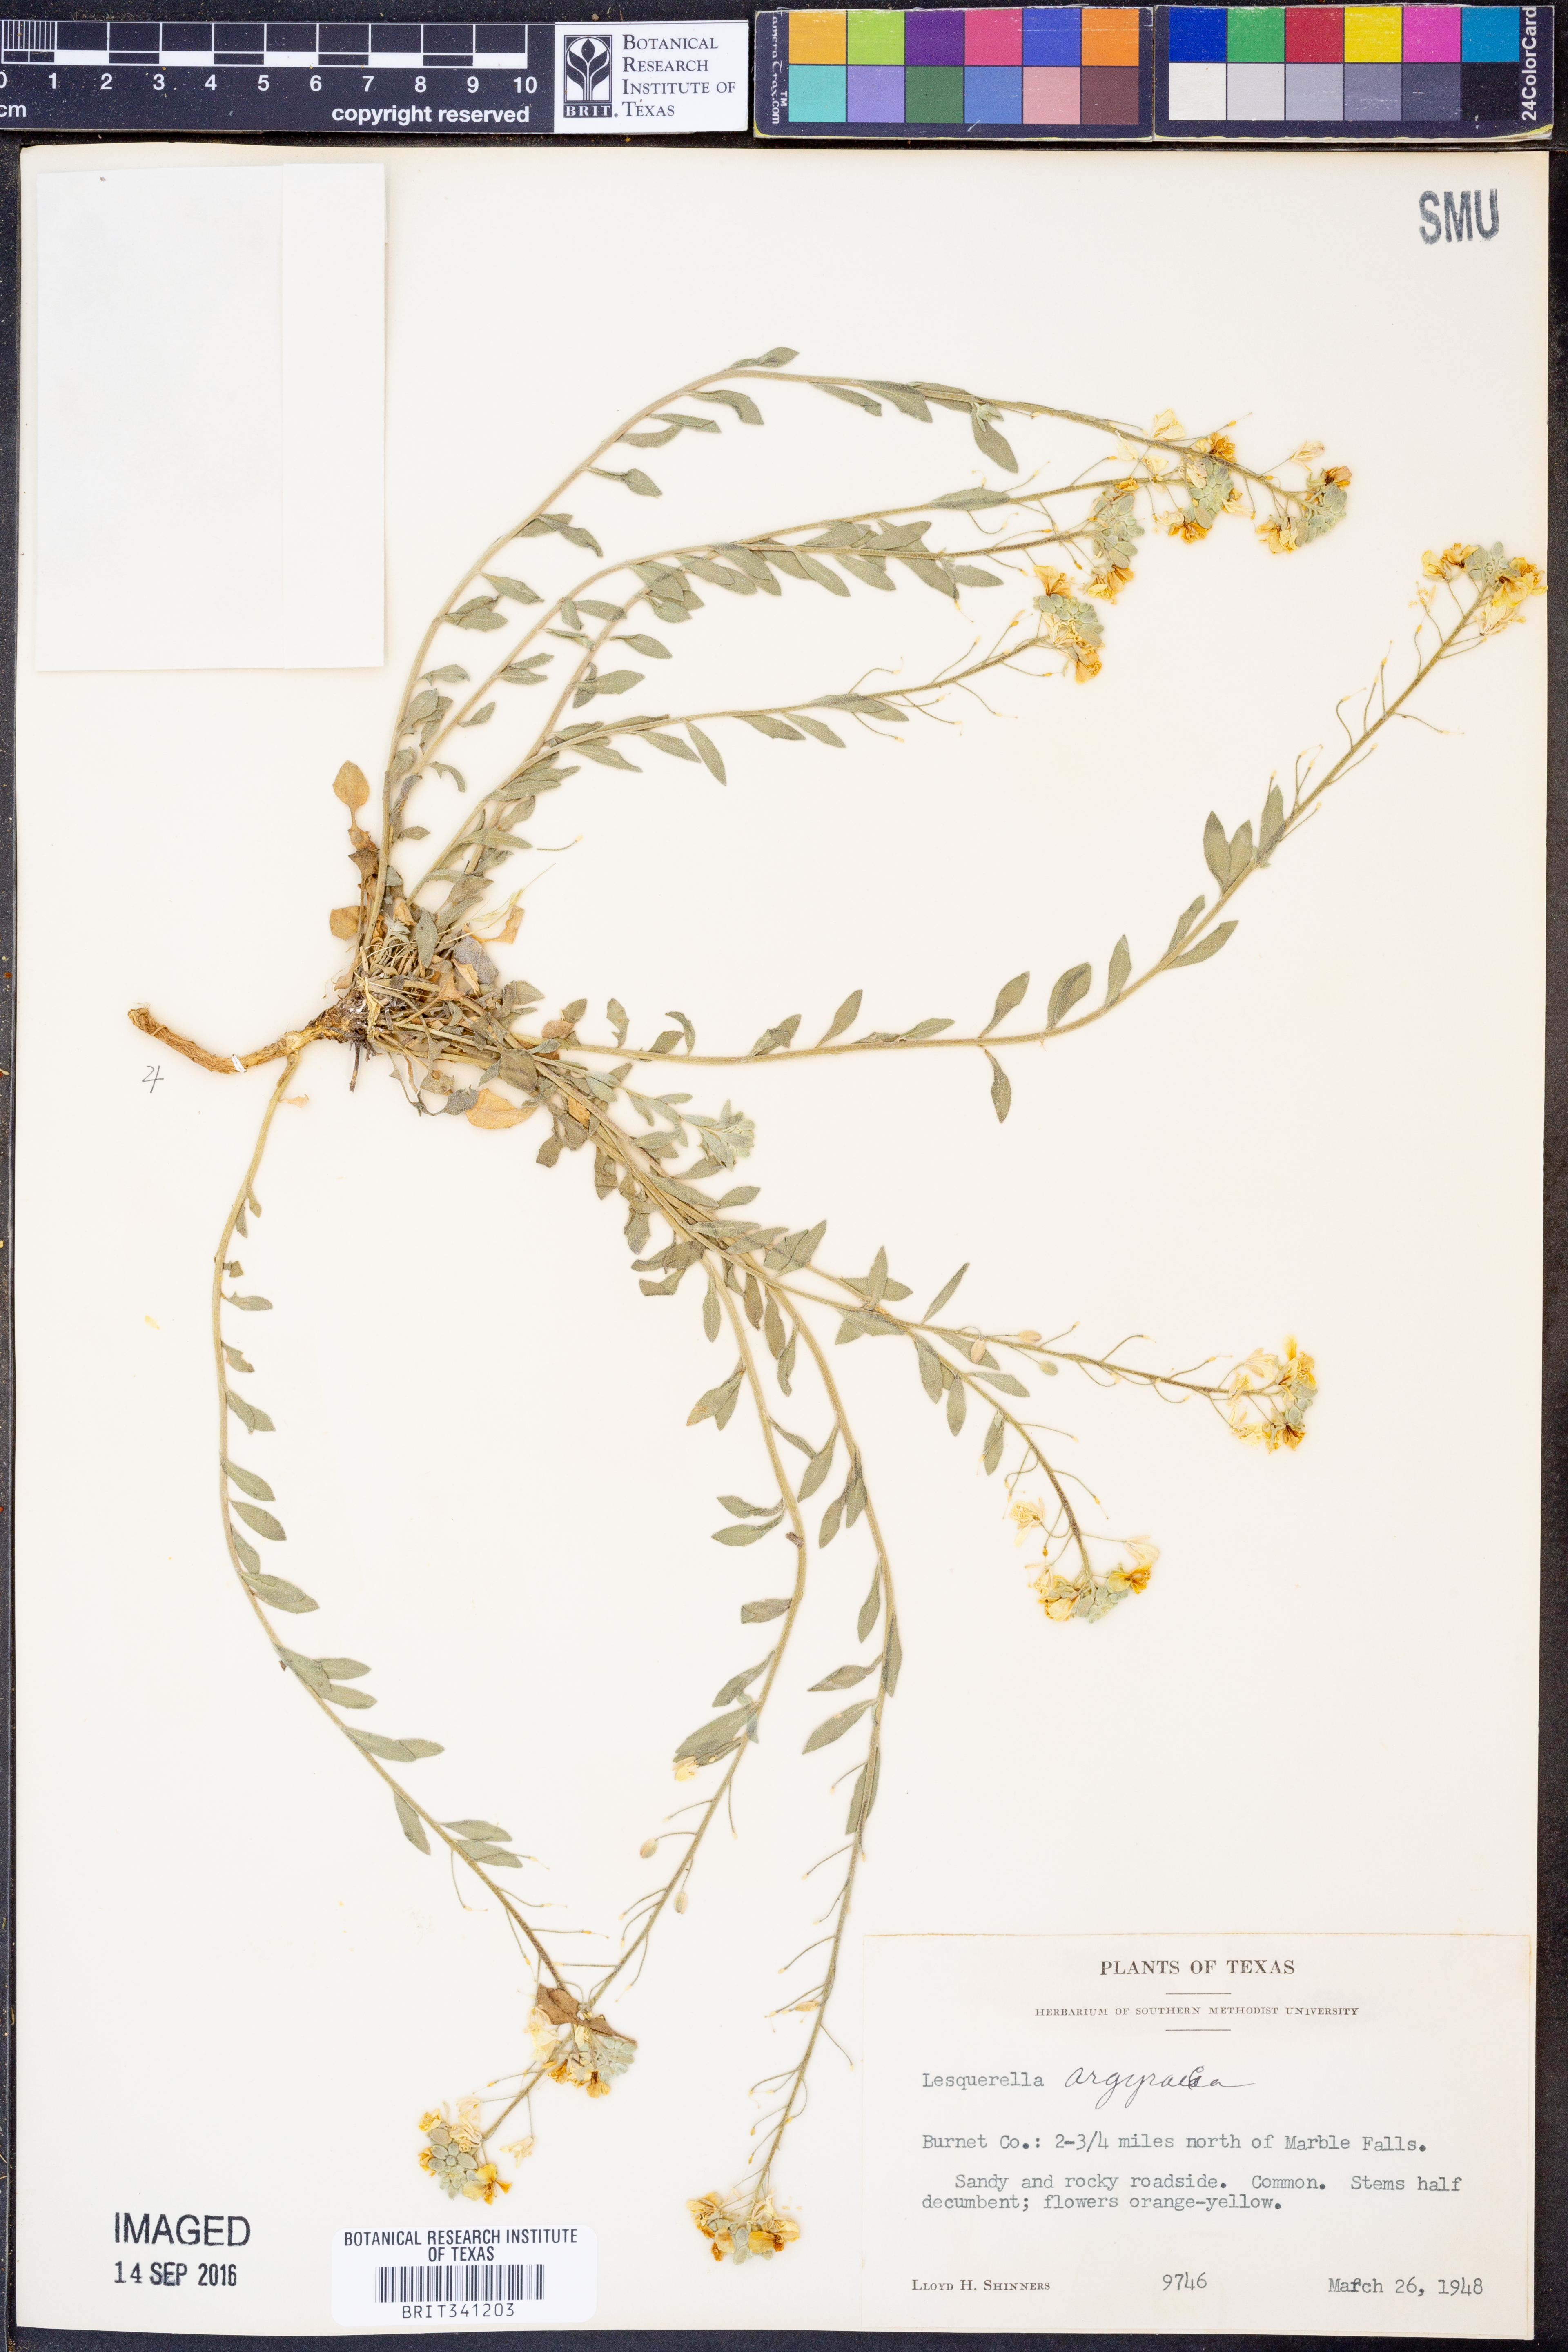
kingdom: Plantae
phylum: Tracheophyta
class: Magnoliopsida
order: Brassicales
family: Brassicaceae
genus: Physaria
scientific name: Physaria argyraea
